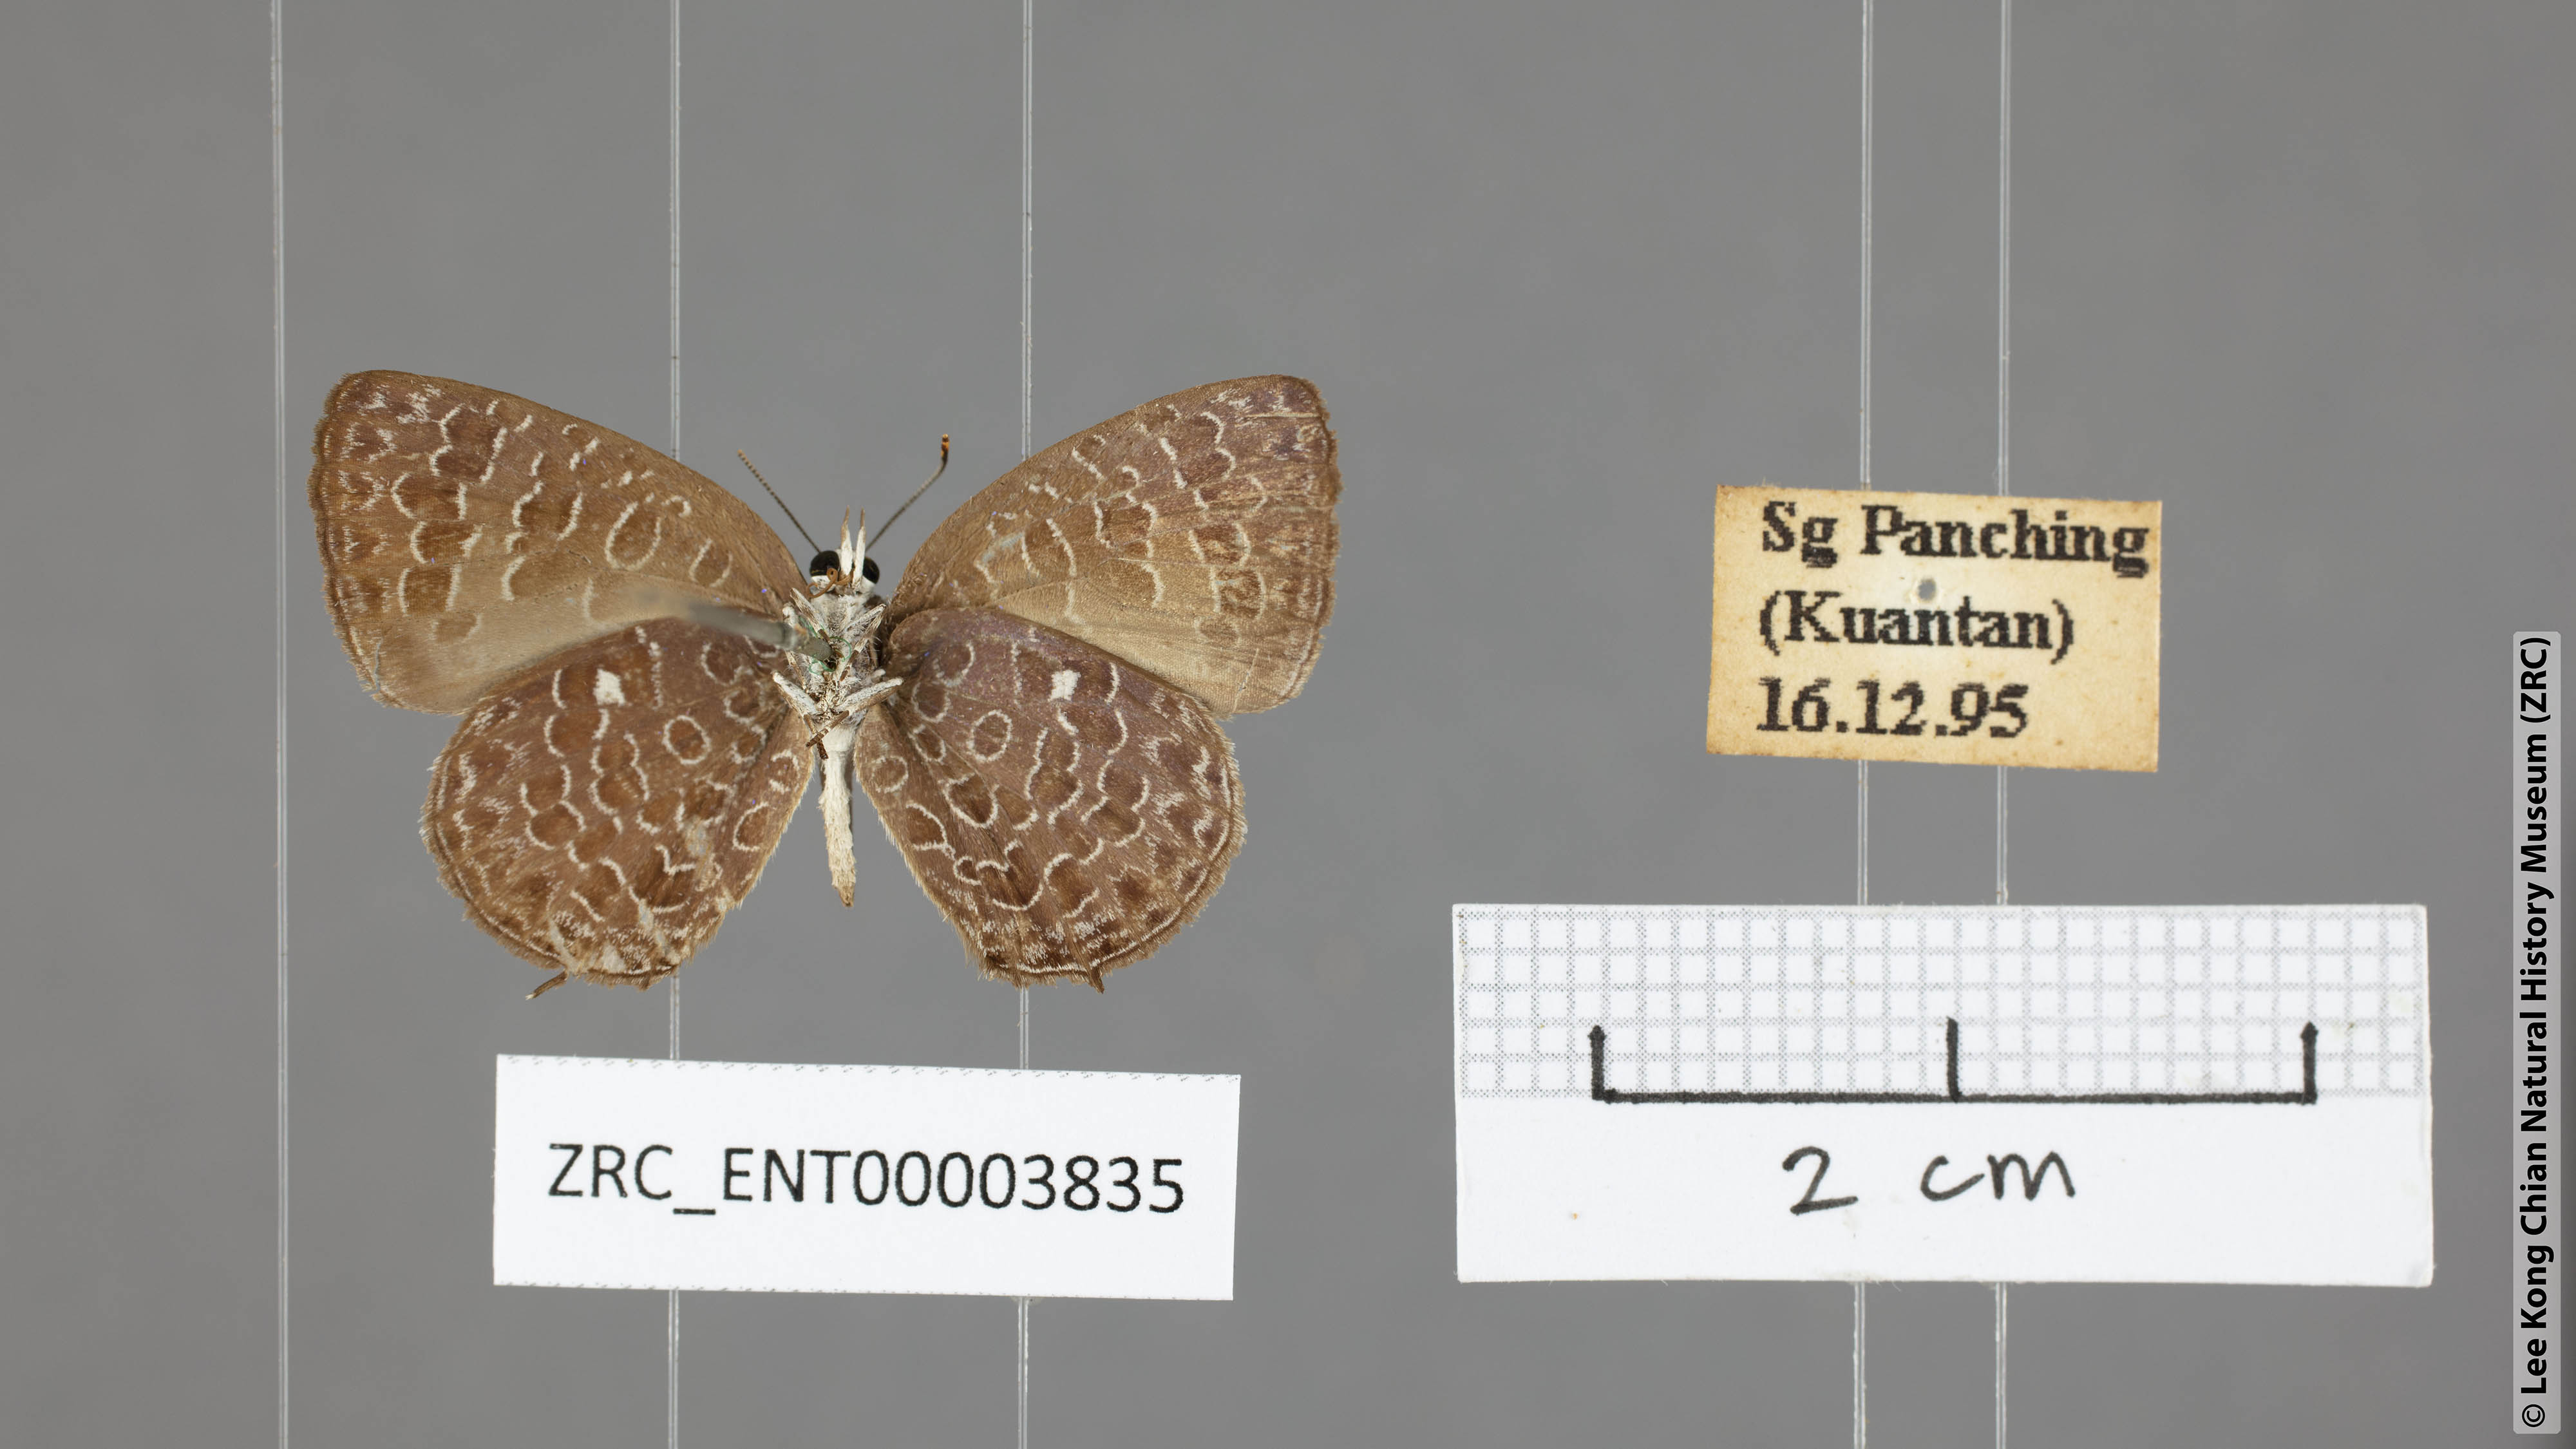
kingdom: Animalia
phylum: Arthropoda
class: Insecta
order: Lepidoptera
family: Lycaenidae
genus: Arhopala
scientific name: Arhopala ammonides
